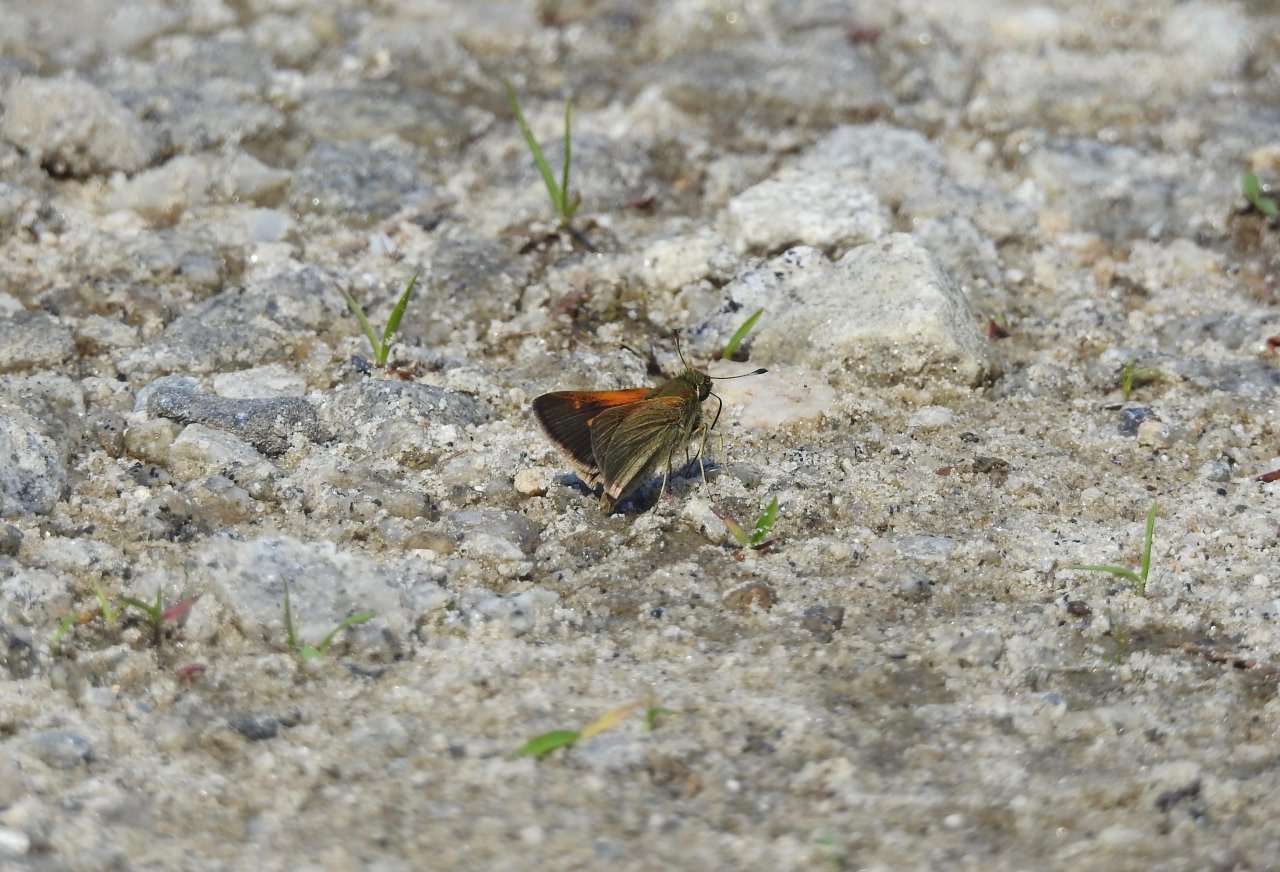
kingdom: Animalia
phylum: Arthropoda
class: Insecta
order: Lepidoptera
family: Hesperiidae
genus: Polites
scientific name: Polites themistocles
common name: Tawny-edged Skipper
